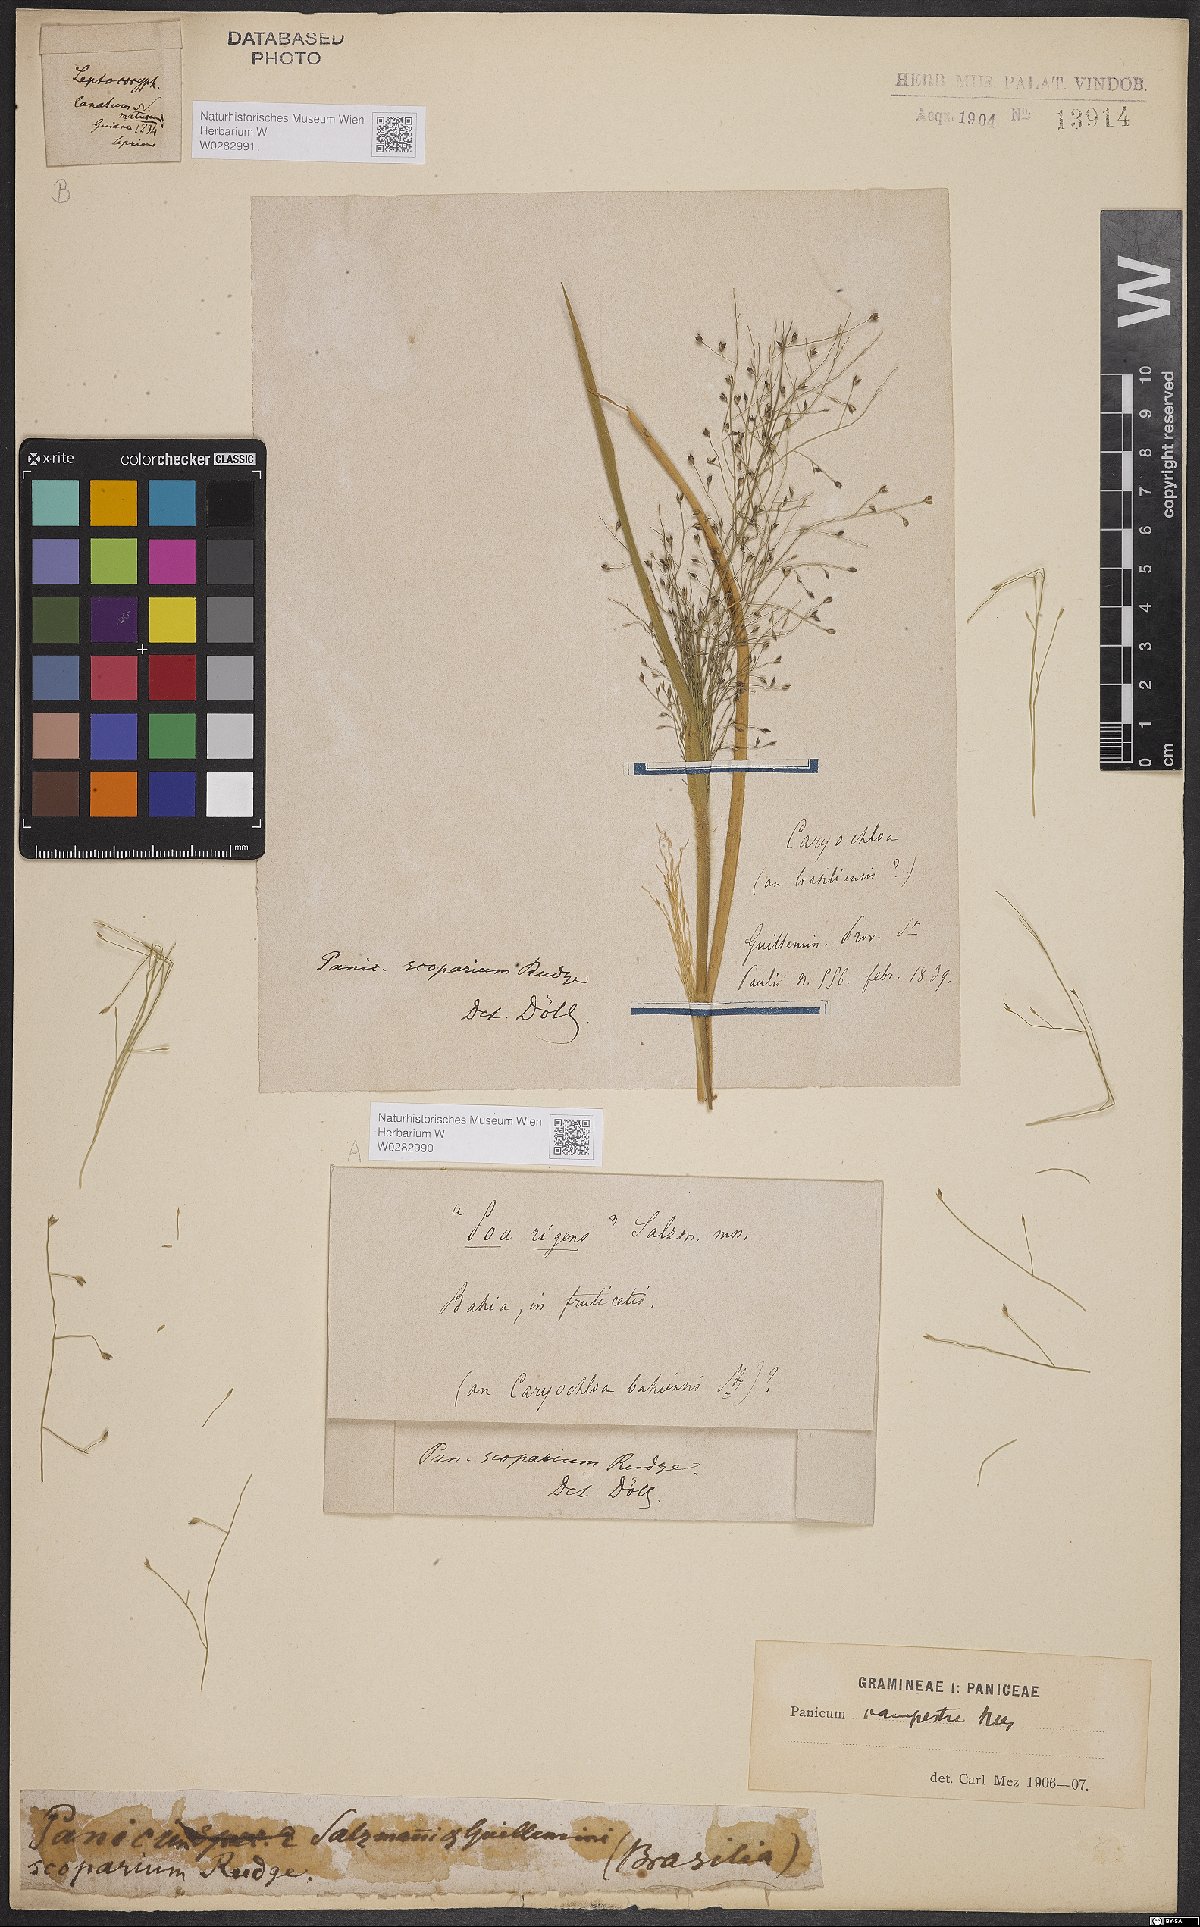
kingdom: Plantae
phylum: Tracheophyta
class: Liliopsida
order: Poales
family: Poaceae
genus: Panicum
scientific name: Panicum peladoense
